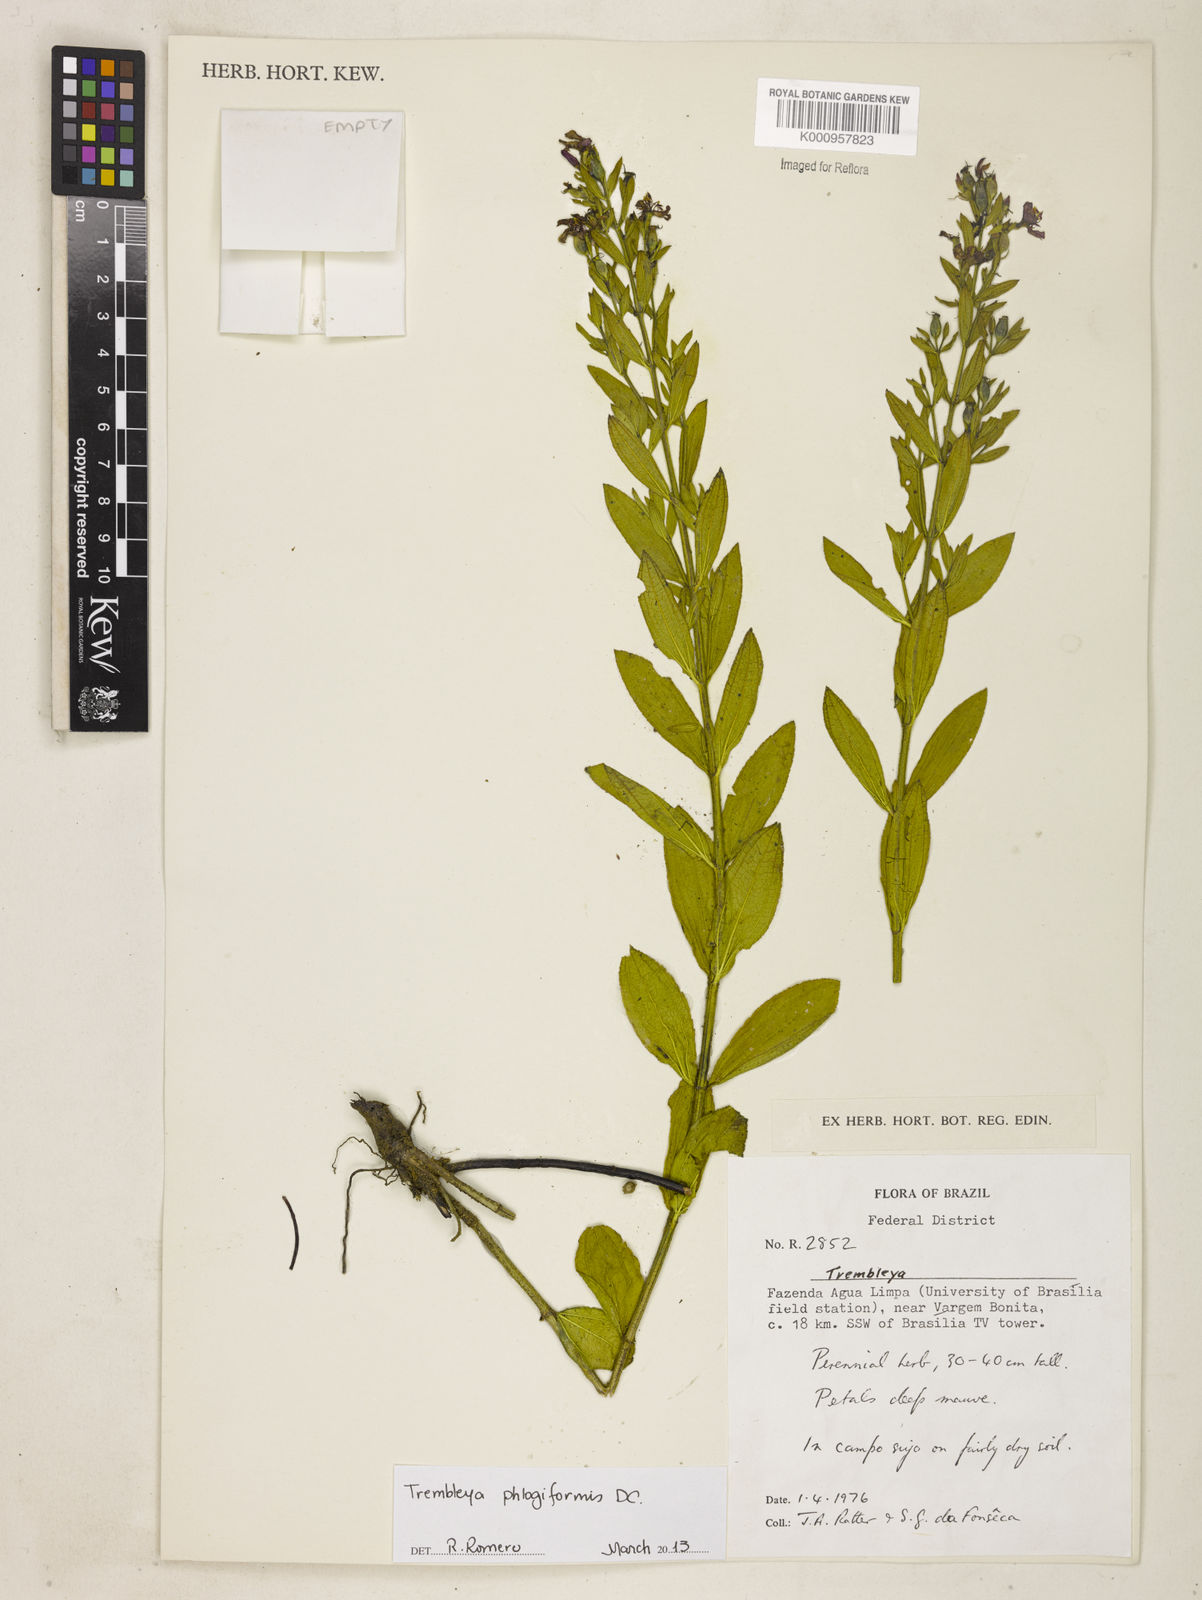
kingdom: Plantae
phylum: Tracheophyta
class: Magnoliopsida
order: Myrtales
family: Melastomataceae
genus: Microlicia
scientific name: Microlicia phlogiformis
